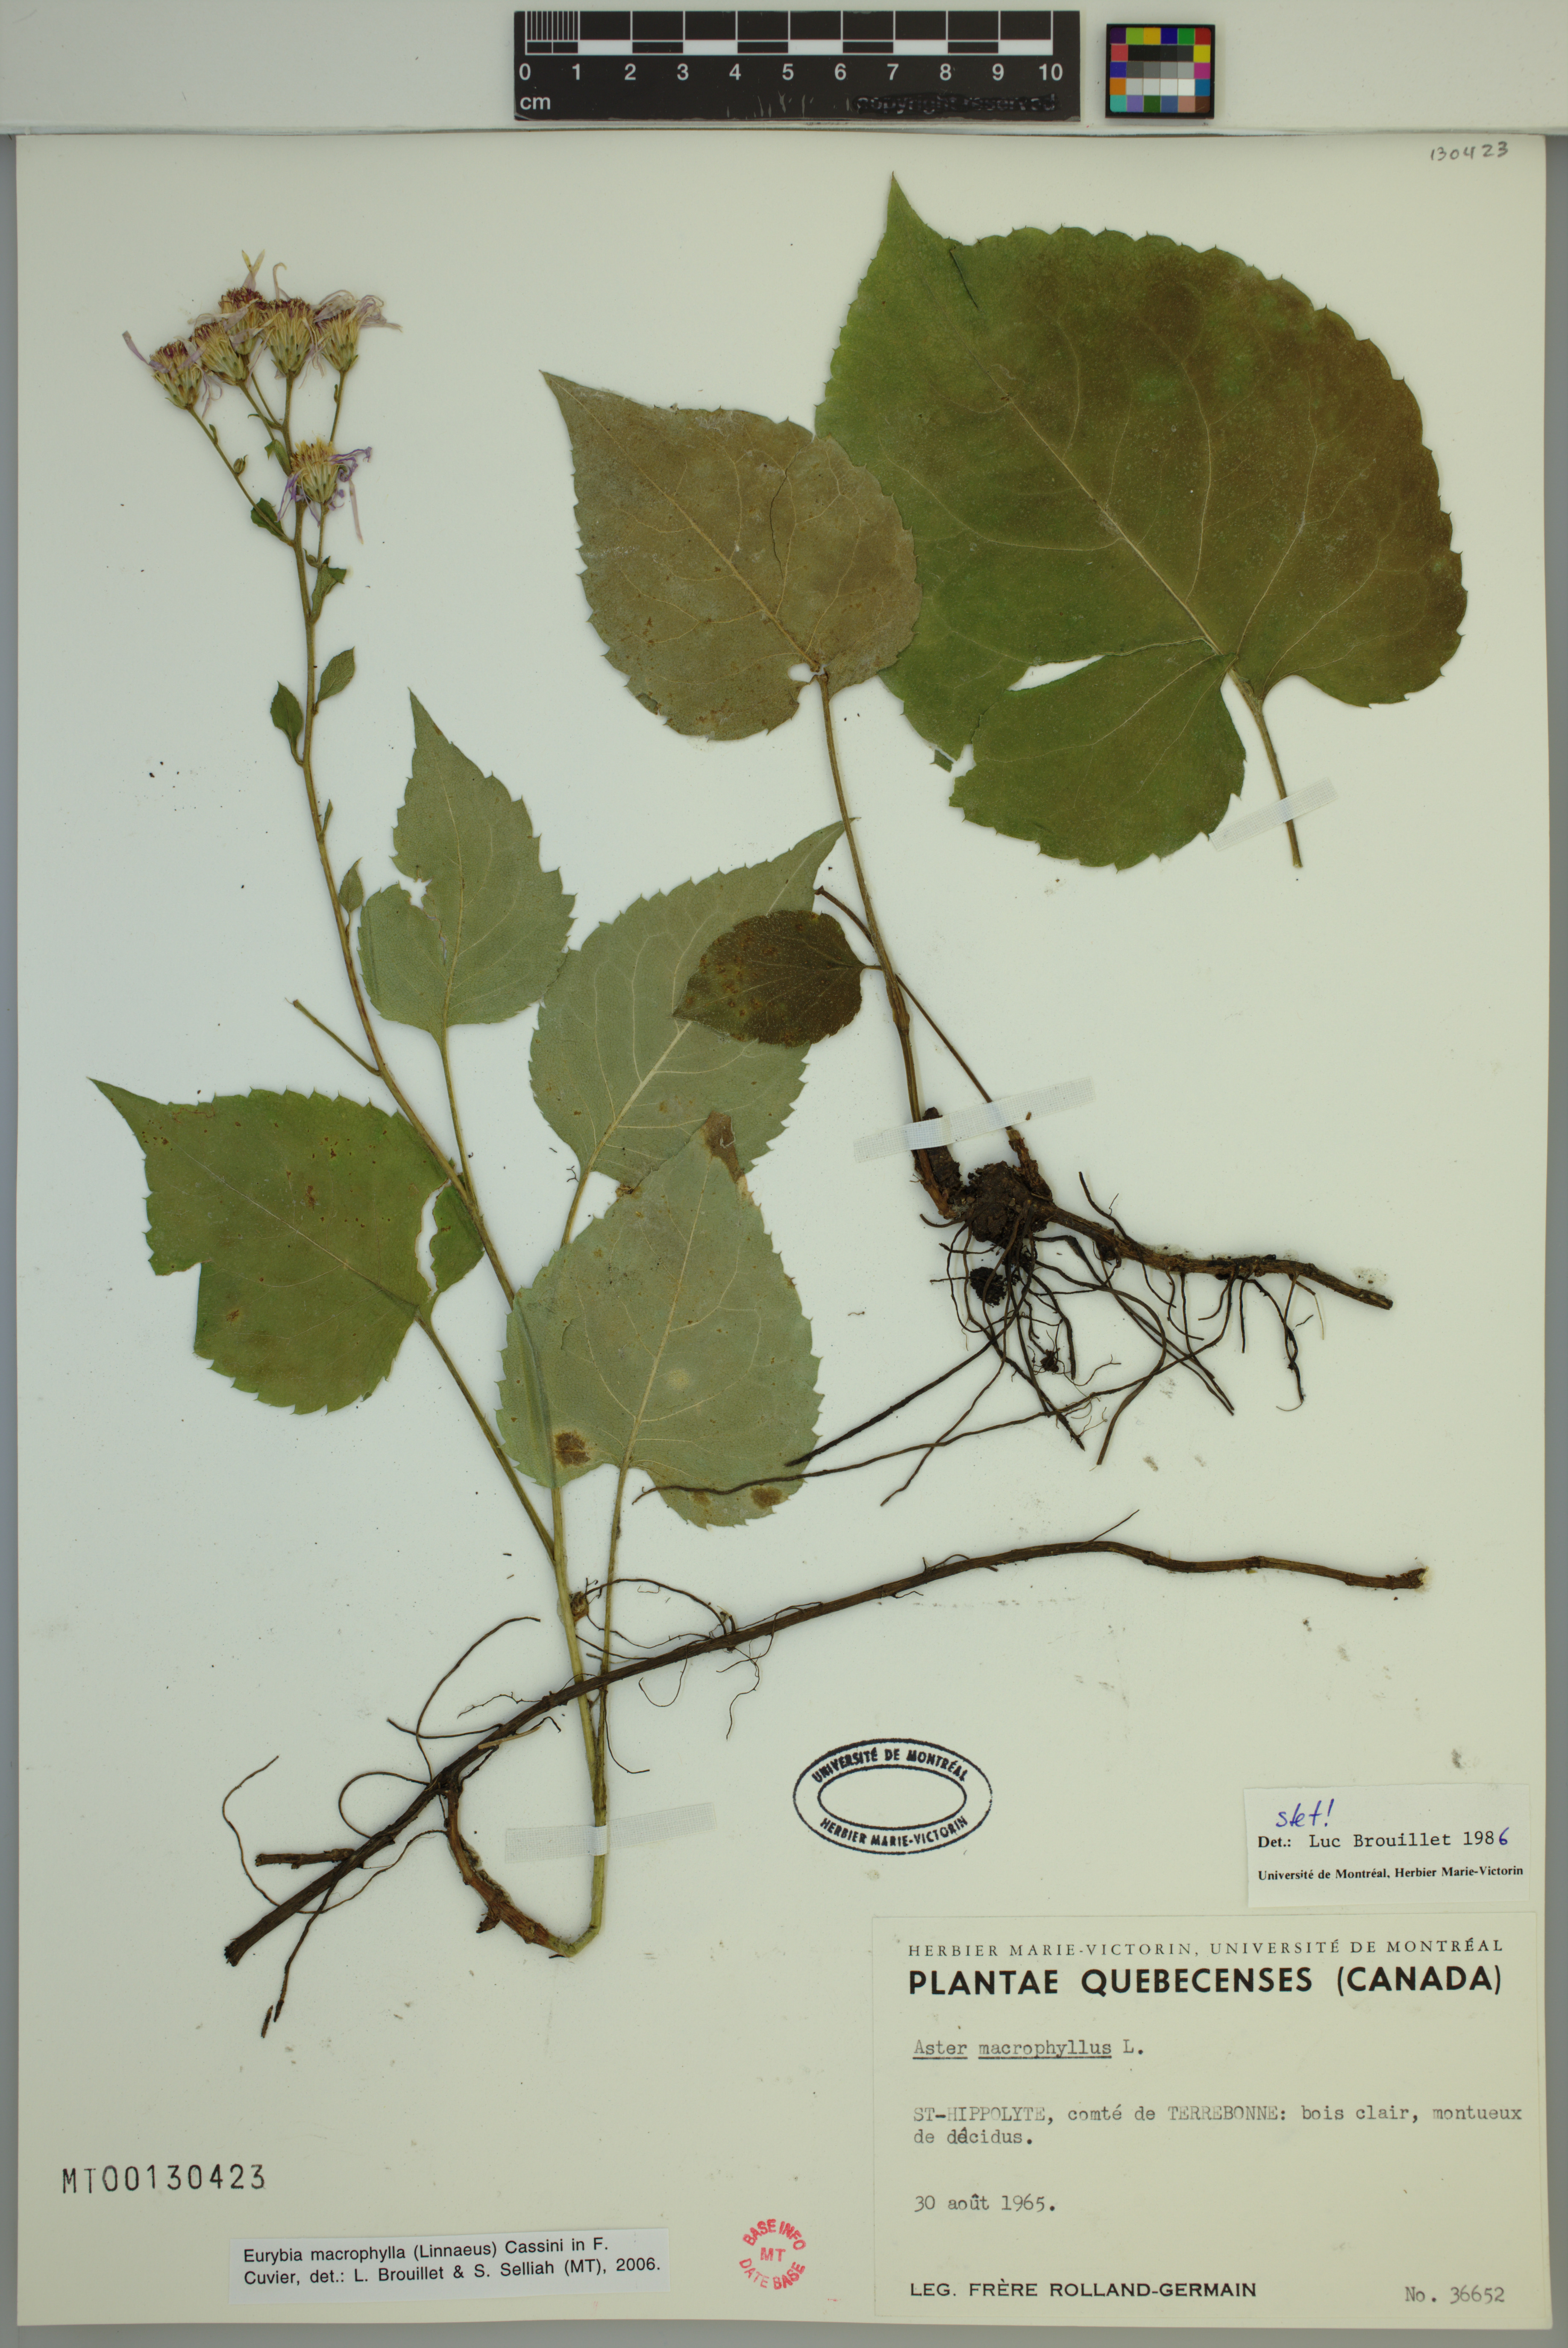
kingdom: Plantae
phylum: Tracheophyta
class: Magnoliopsida
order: Asterales
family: Asteraceae
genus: Eurybia
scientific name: Eurybia macrophylla
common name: Big-leaved aster
